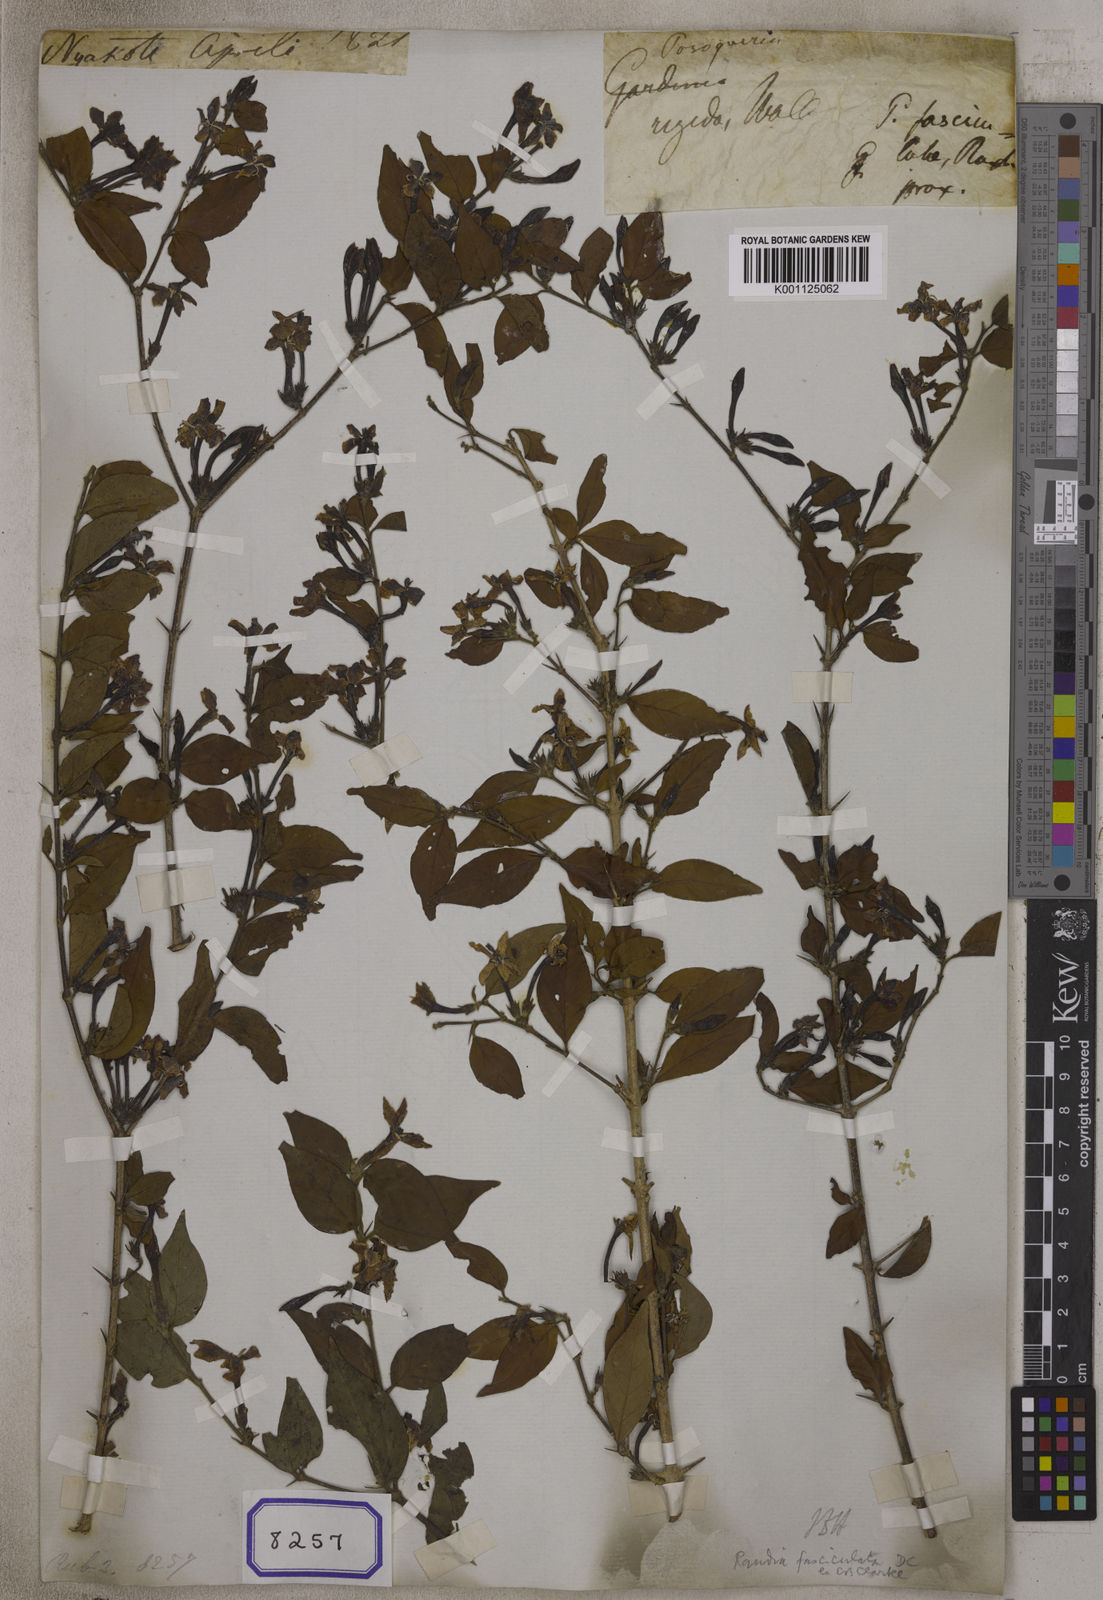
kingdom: Plantae
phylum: Tracheophyta
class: Magnoliopsida
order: Gentianales
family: Rubiaceae
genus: Gardenia
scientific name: Gardenia
